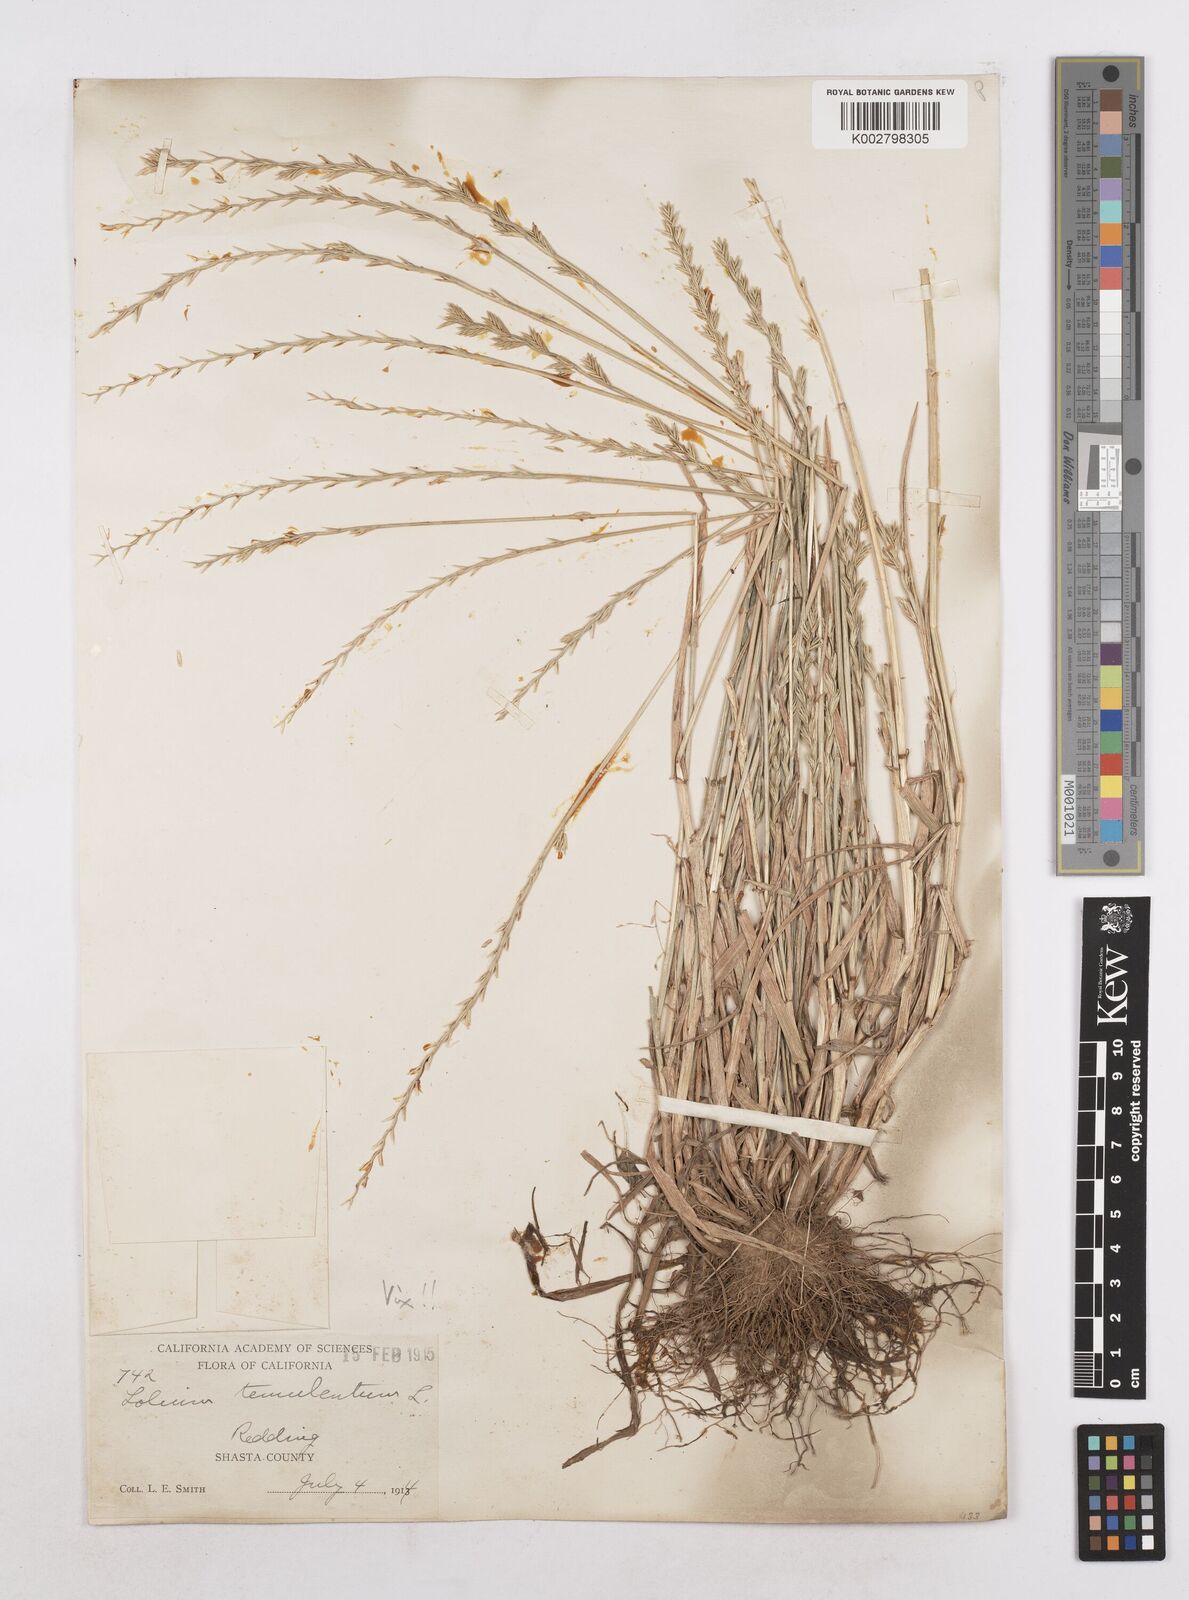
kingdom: Plantae
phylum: Tracheophyta
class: Liliopsida
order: Poales
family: Poaceae
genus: Lolium
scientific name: Lolium perenne
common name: Perennial ryegrass
